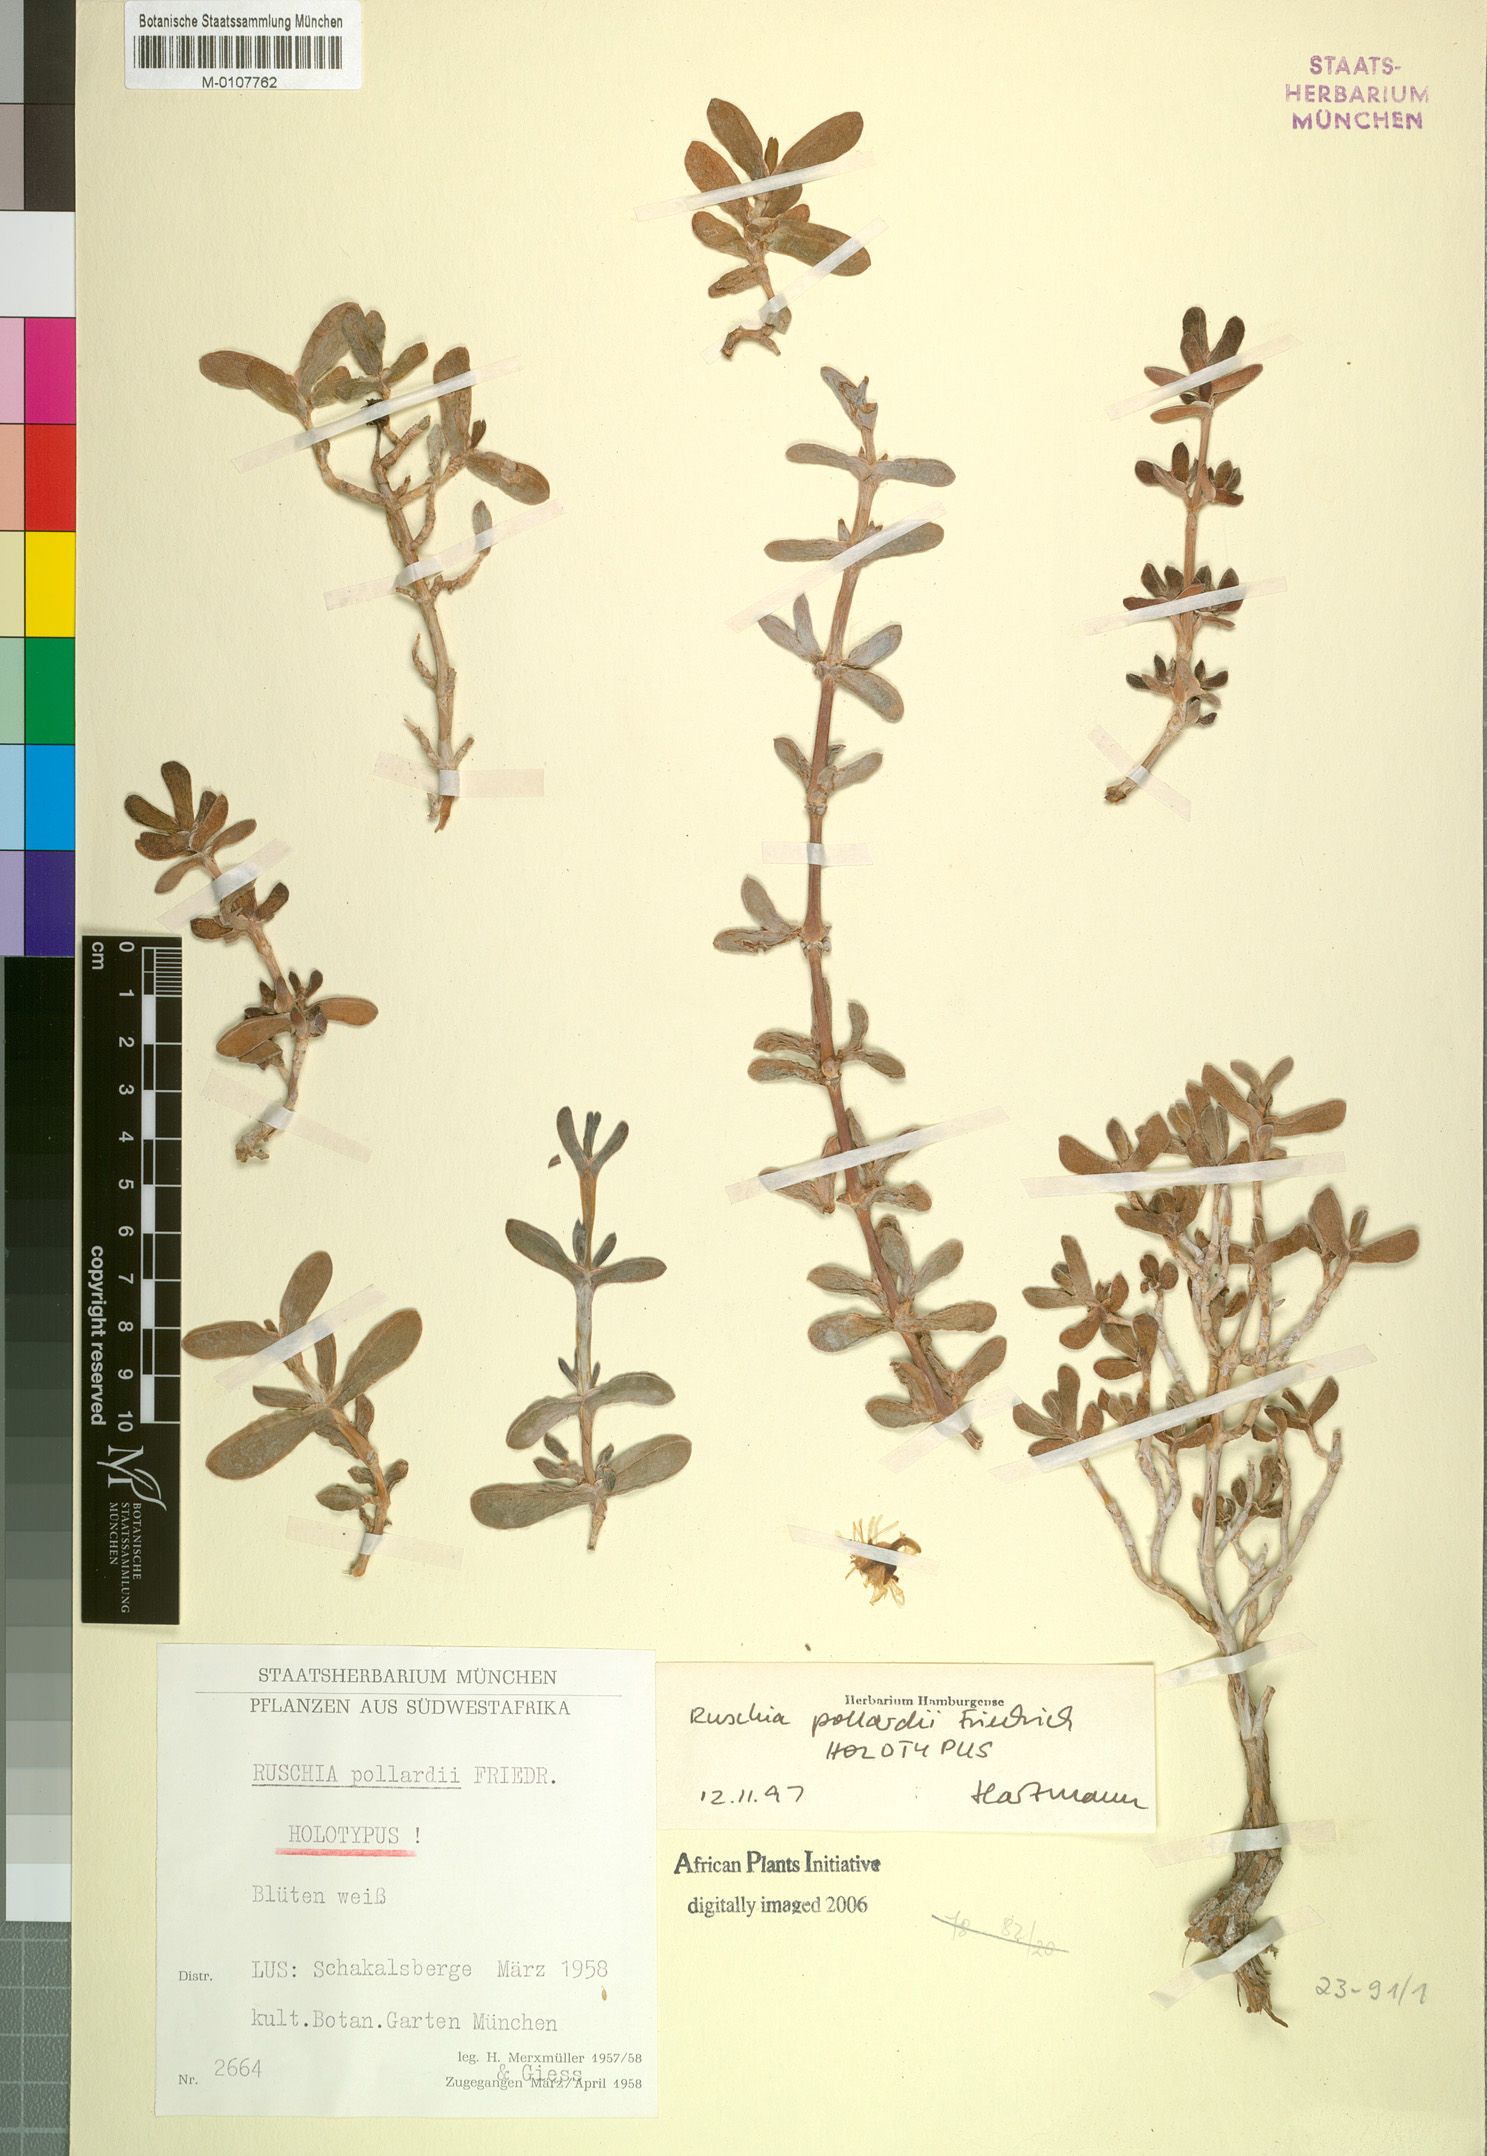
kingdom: Plantae
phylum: Tracheophyta
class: Magnoliopsida
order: Caryophyllales
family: Aizoaceae
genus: Ruschia
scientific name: Ruschia pollardii
